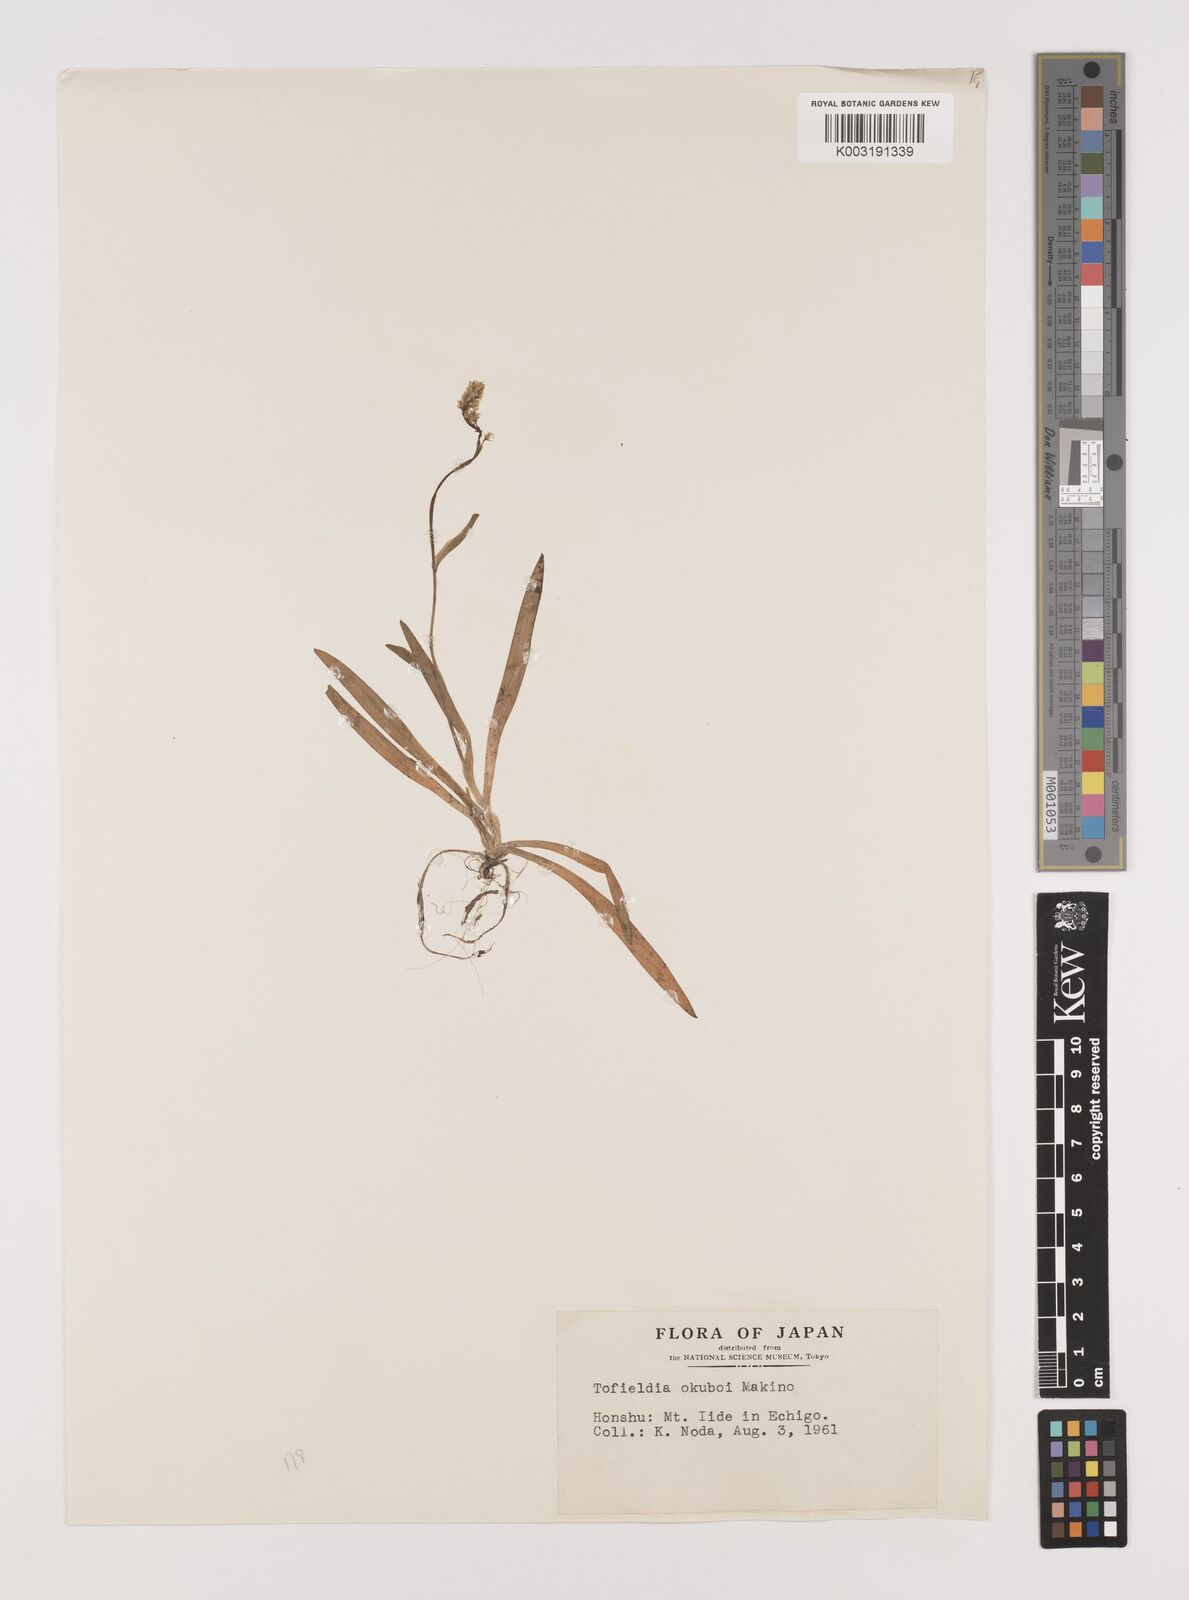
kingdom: Plantae
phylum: Tracheophyta
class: Liliopsida
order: Alismatales
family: Tofieldiaceae
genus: Tofieldia
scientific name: Tofieldia okuboi
